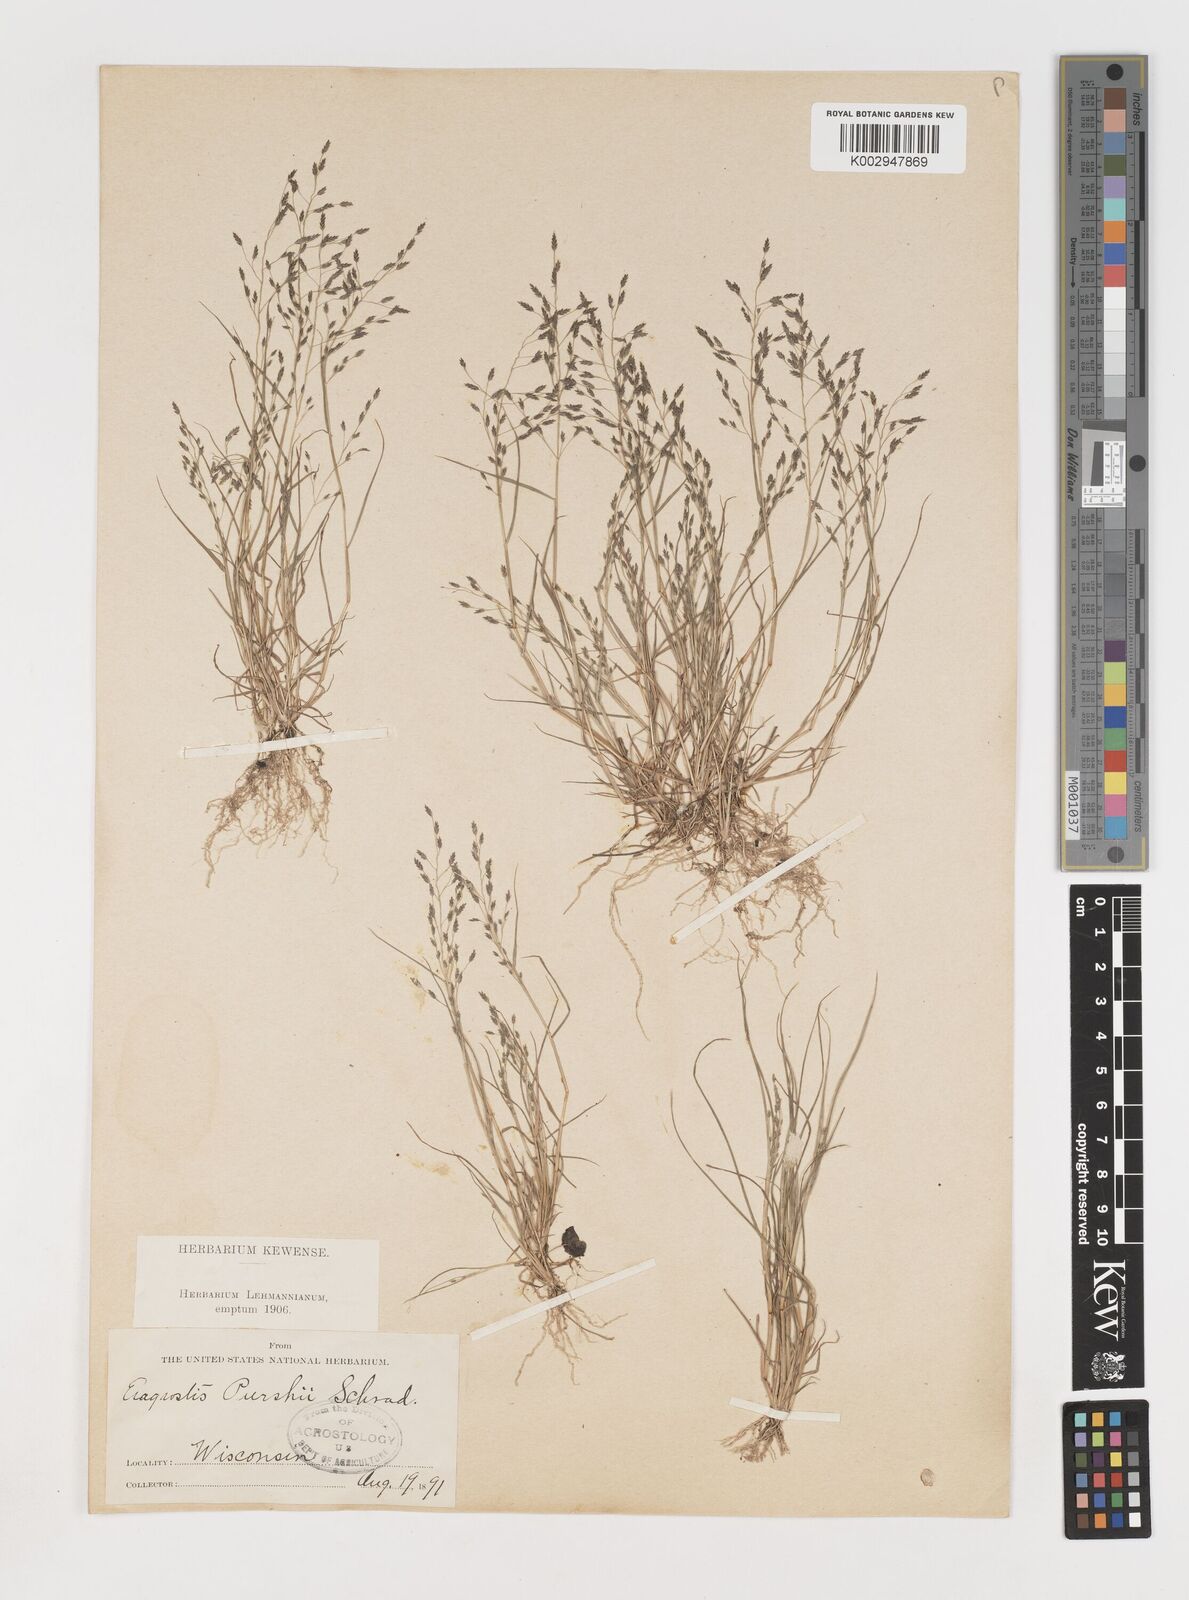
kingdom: Plantae
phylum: Tracheophyta
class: Liliopsida
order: Poales
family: Poaceae
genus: Eragrostis
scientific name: Eragrostis
